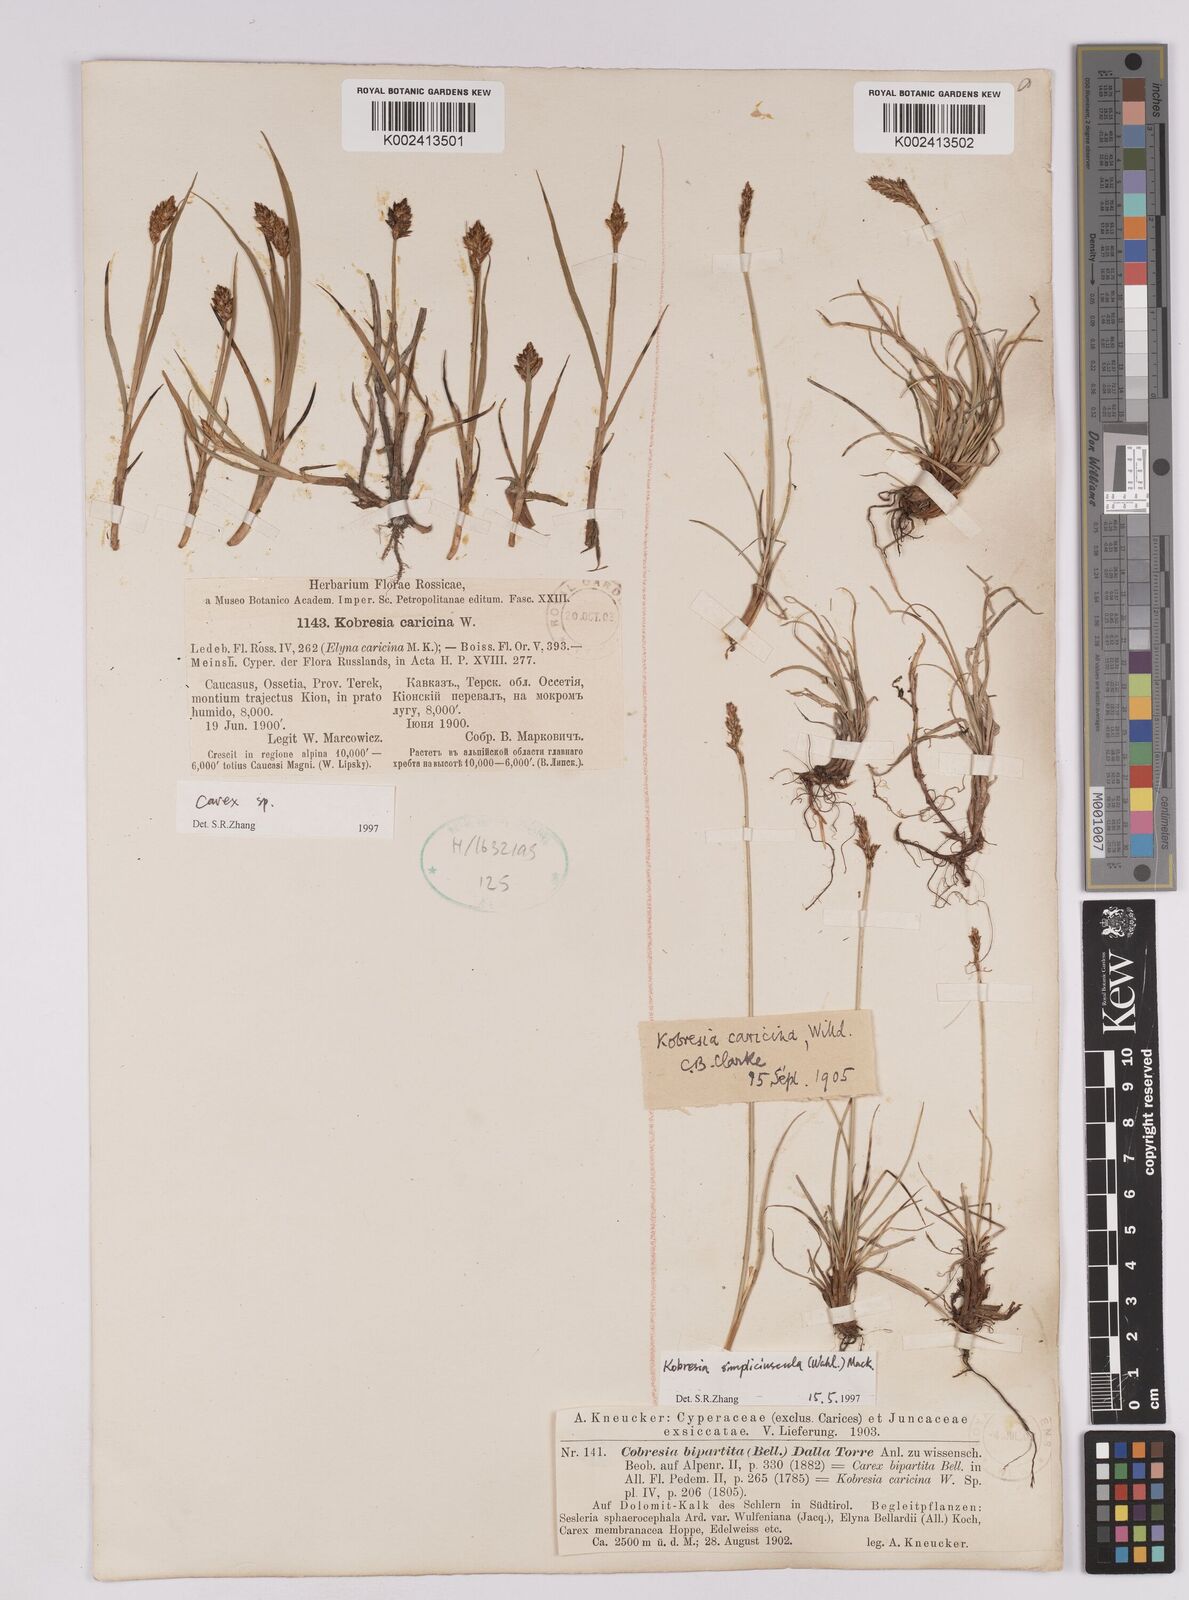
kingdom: Plantae
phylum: Tracheophyta
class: Liliopsida
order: Poales
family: Cyperaceae
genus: Carex
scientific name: Carex simpliciuscula
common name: Simple bog sedge
